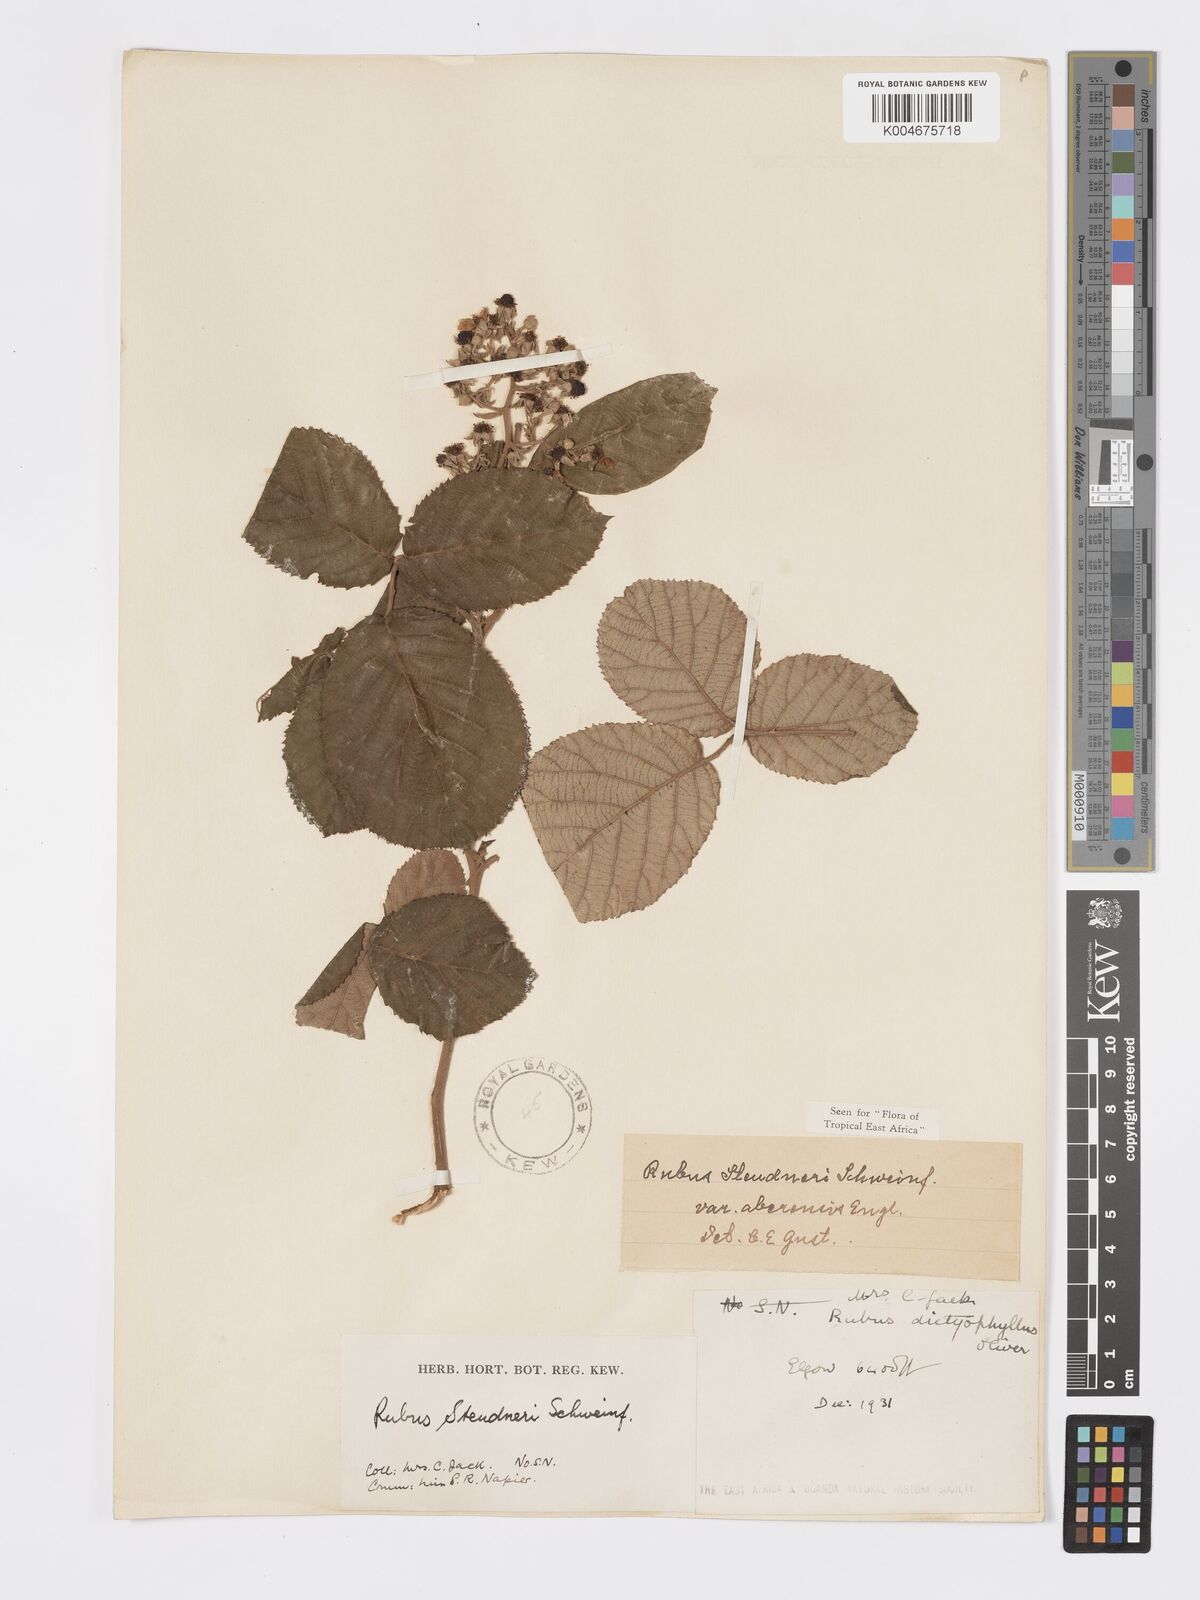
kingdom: Plantae
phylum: Tracheophyta
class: Magnoliopsida
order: Rosales
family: Rosaceae
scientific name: Rosaceae
